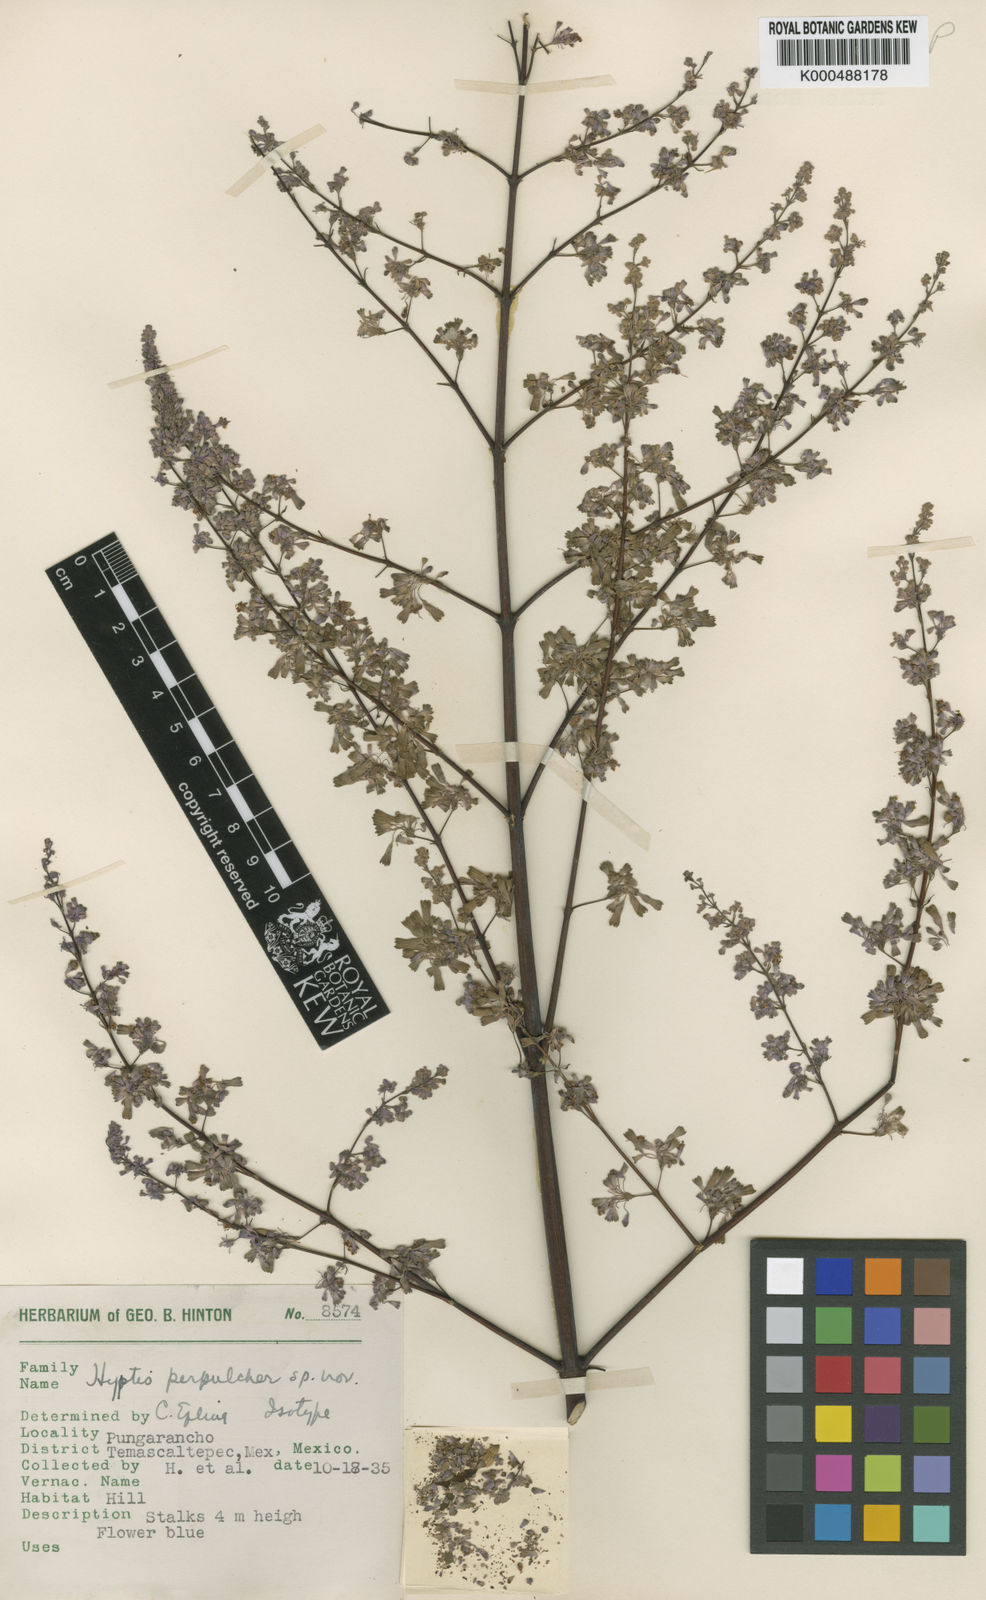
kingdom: Plantae
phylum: Tracheophyta
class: Magnoliopsida
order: Lamiales
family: Lamiaceae
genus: Condea
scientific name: Condea subtilis
